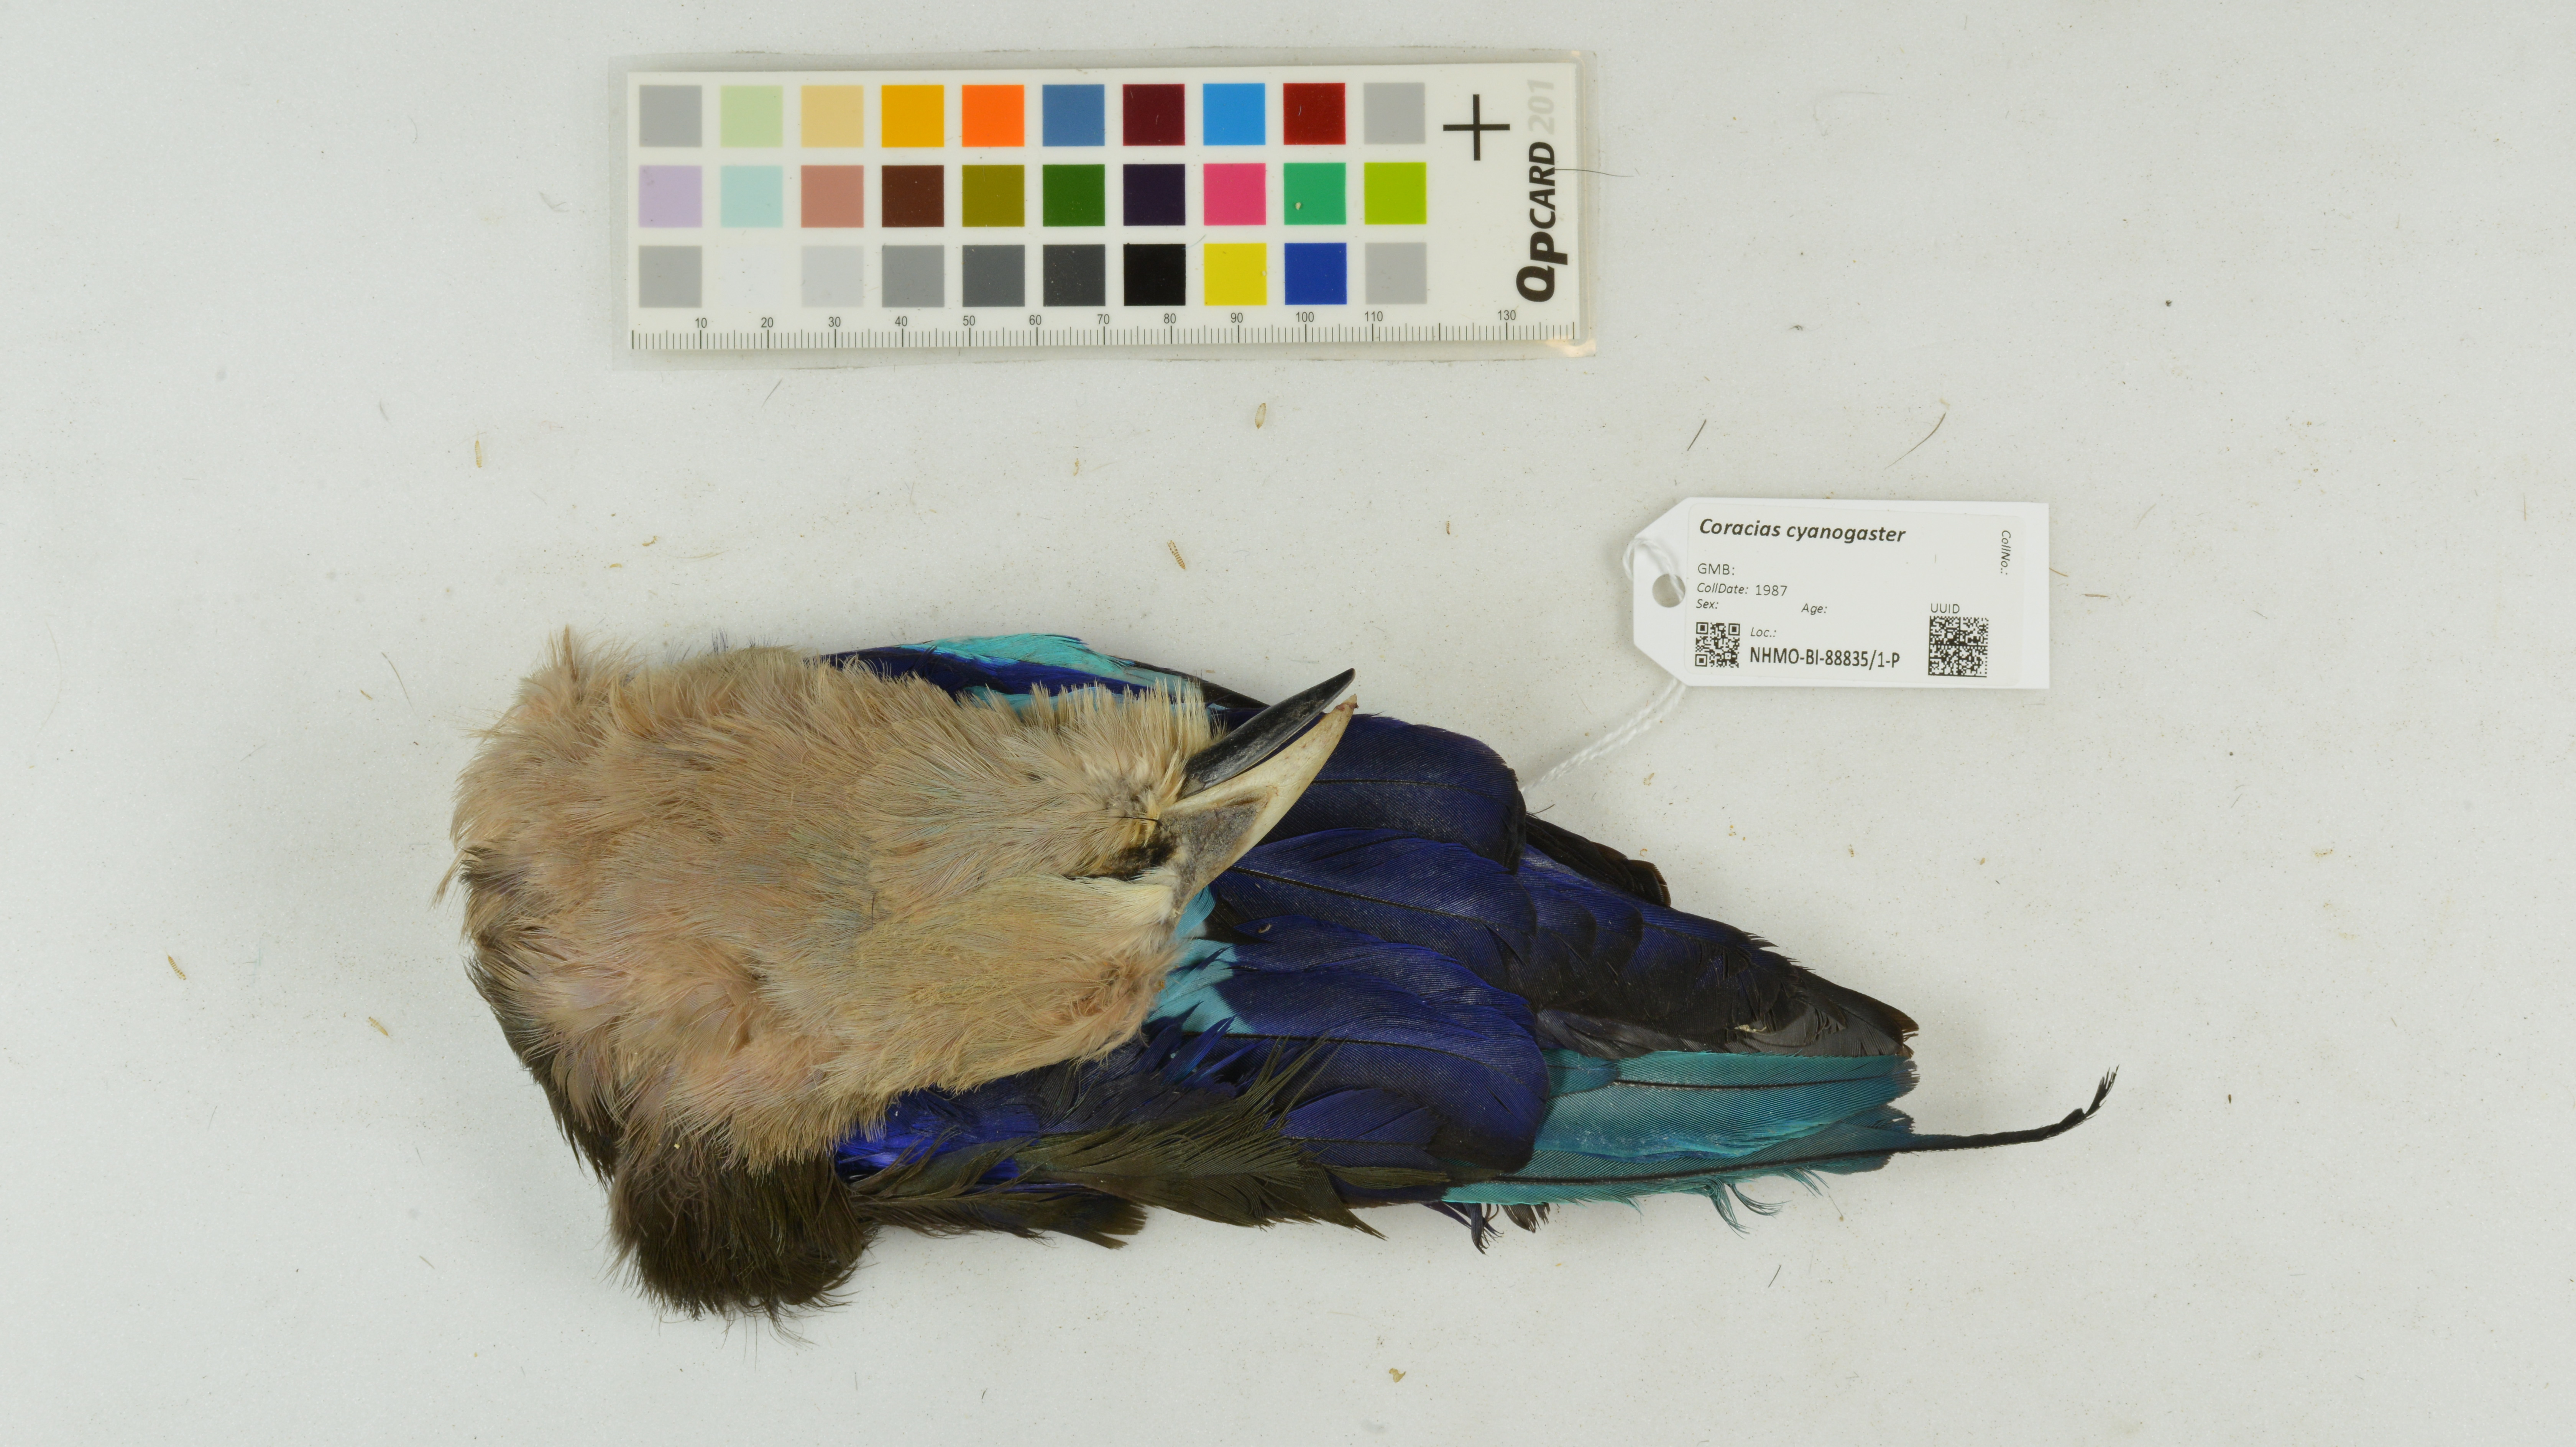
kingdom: Animalia
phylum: Chordata
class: Aves
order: Coraciiformes
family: Coraciidae
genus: Coracias
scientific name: Coracias cyanogaster
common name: Blue-bellied roller
